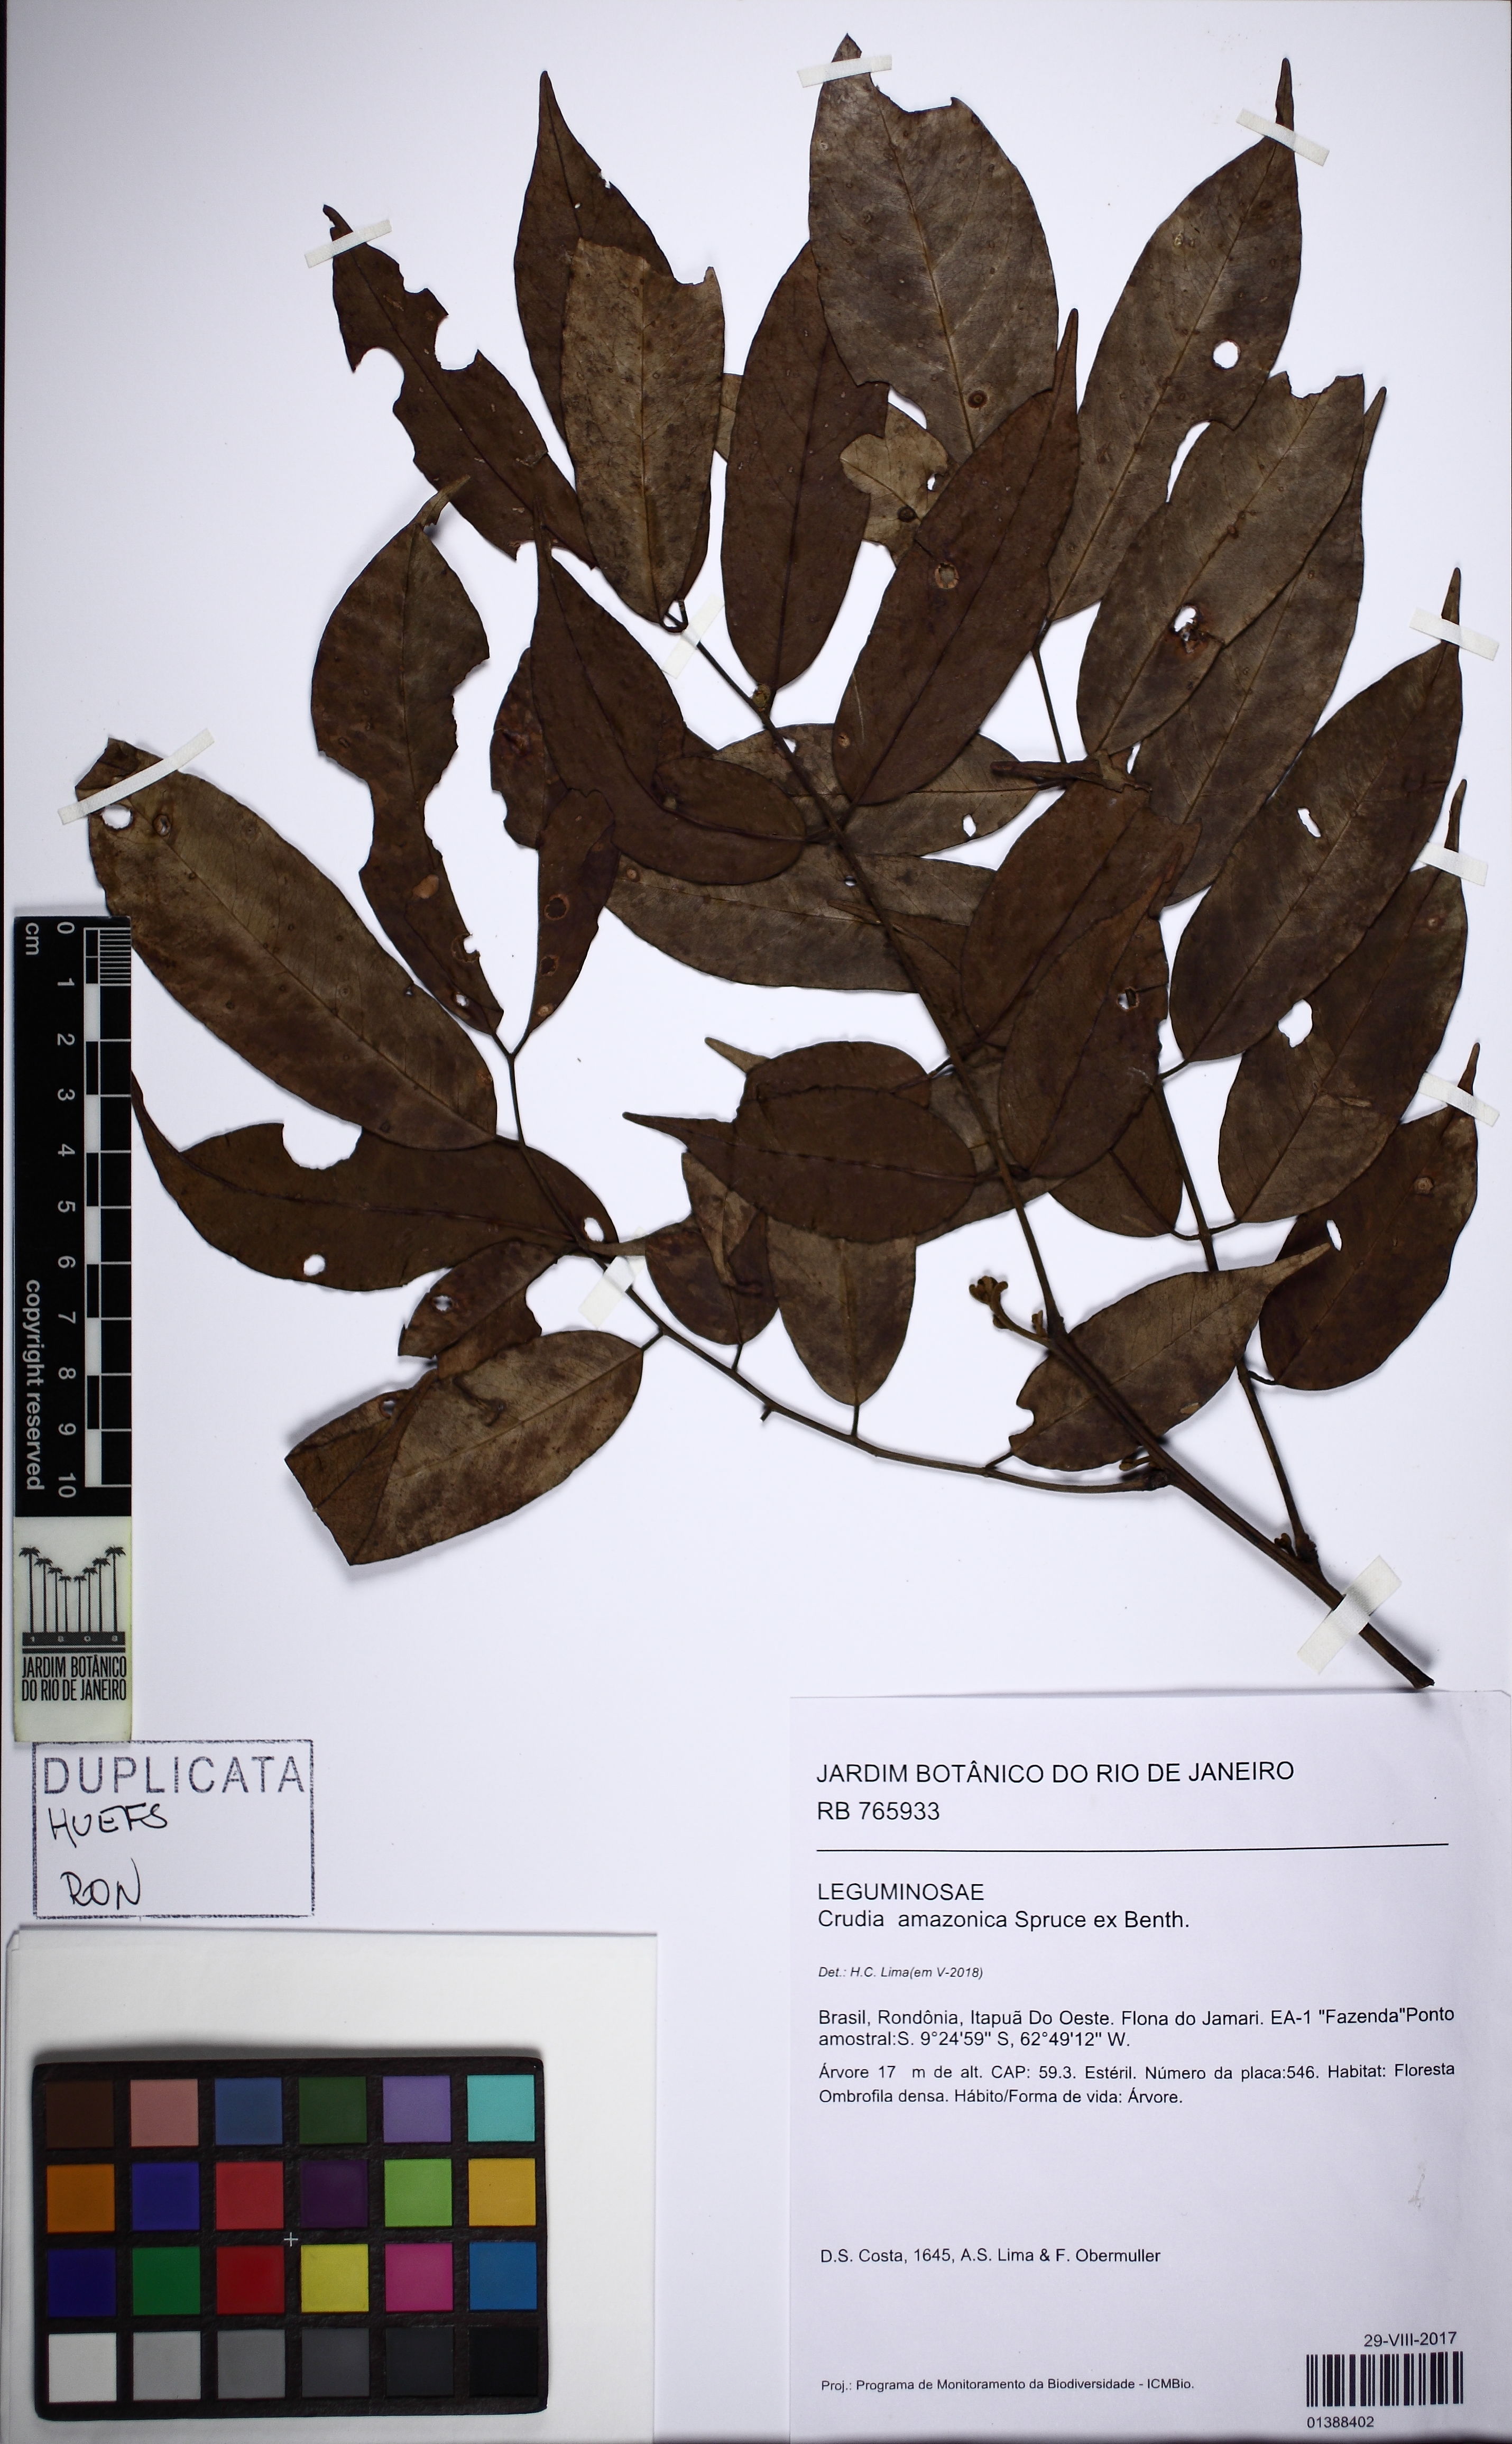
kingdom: Plantae
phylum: Tracheophyta
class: Magnoliopsida
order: Fabales
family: Fabaceae
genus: Crudia
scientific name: Crudia amazonica
